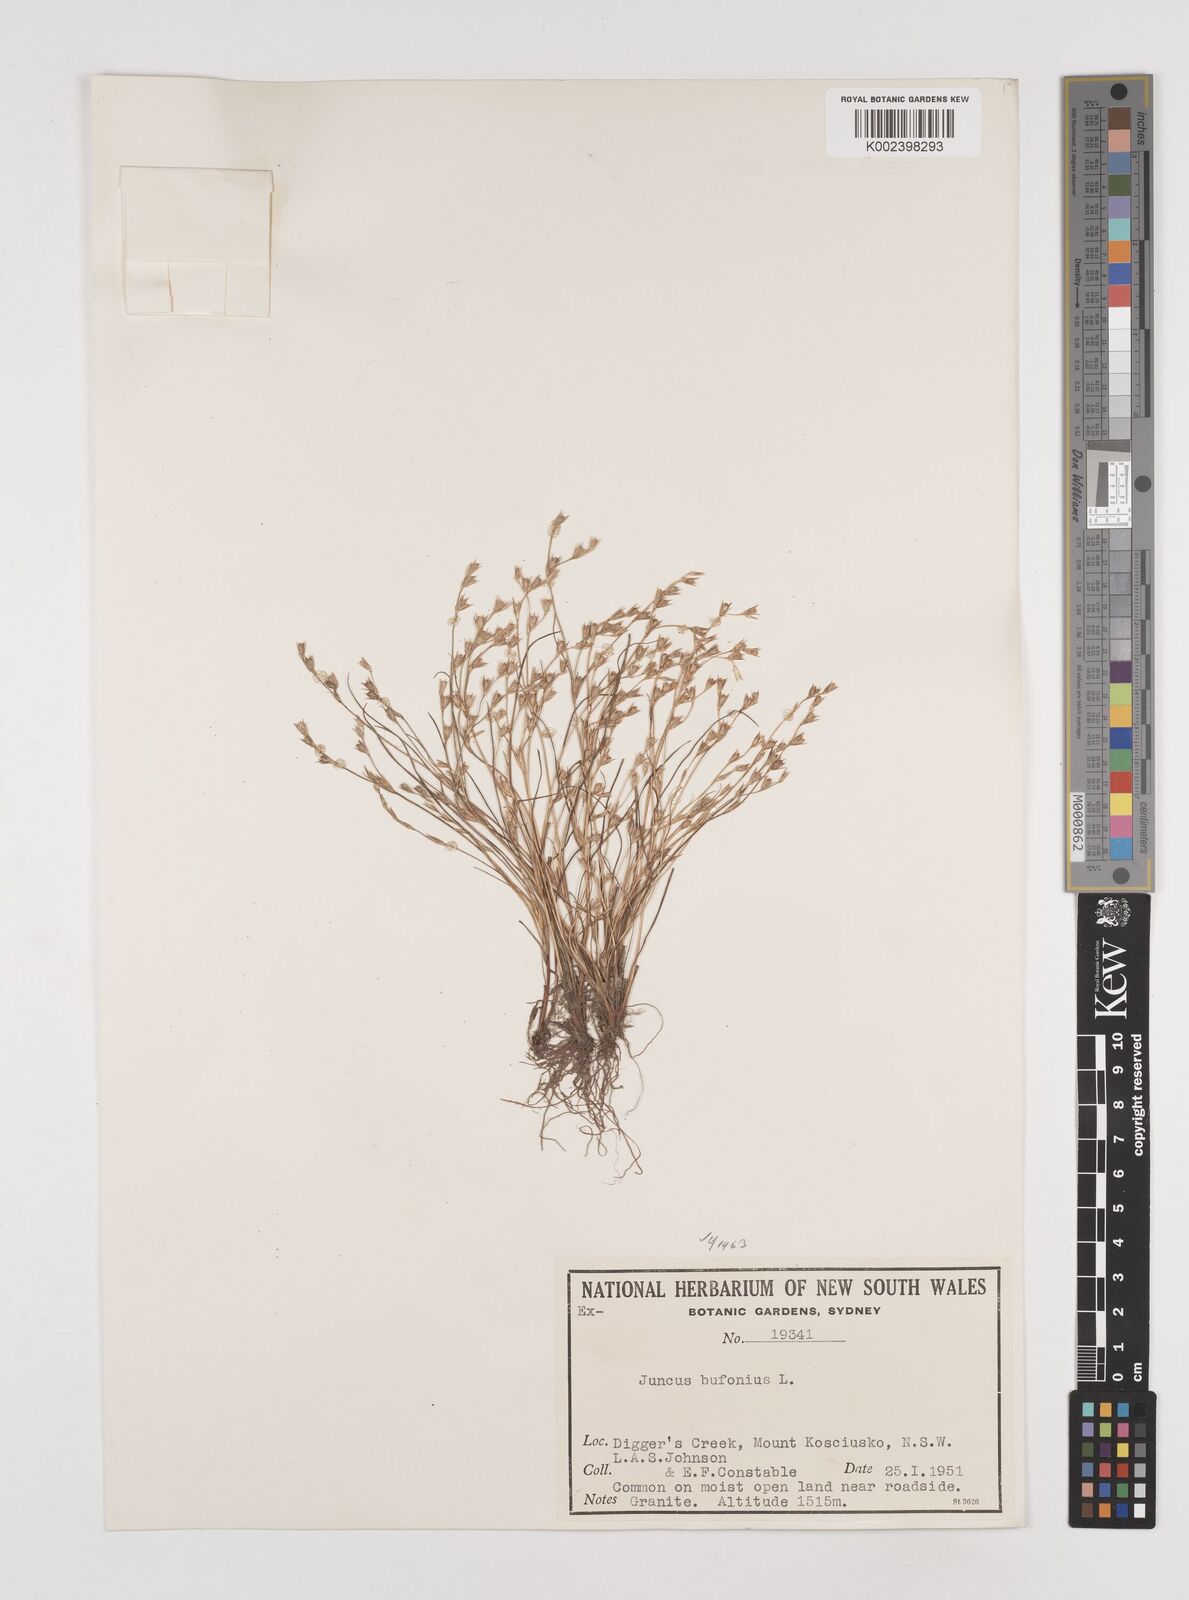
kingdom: Plantae
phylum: Tracheophyta
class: Liliopsida
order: Poales
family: Juncaceae
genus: Juncus
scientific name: Juncus ranarius
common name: Frog rush
